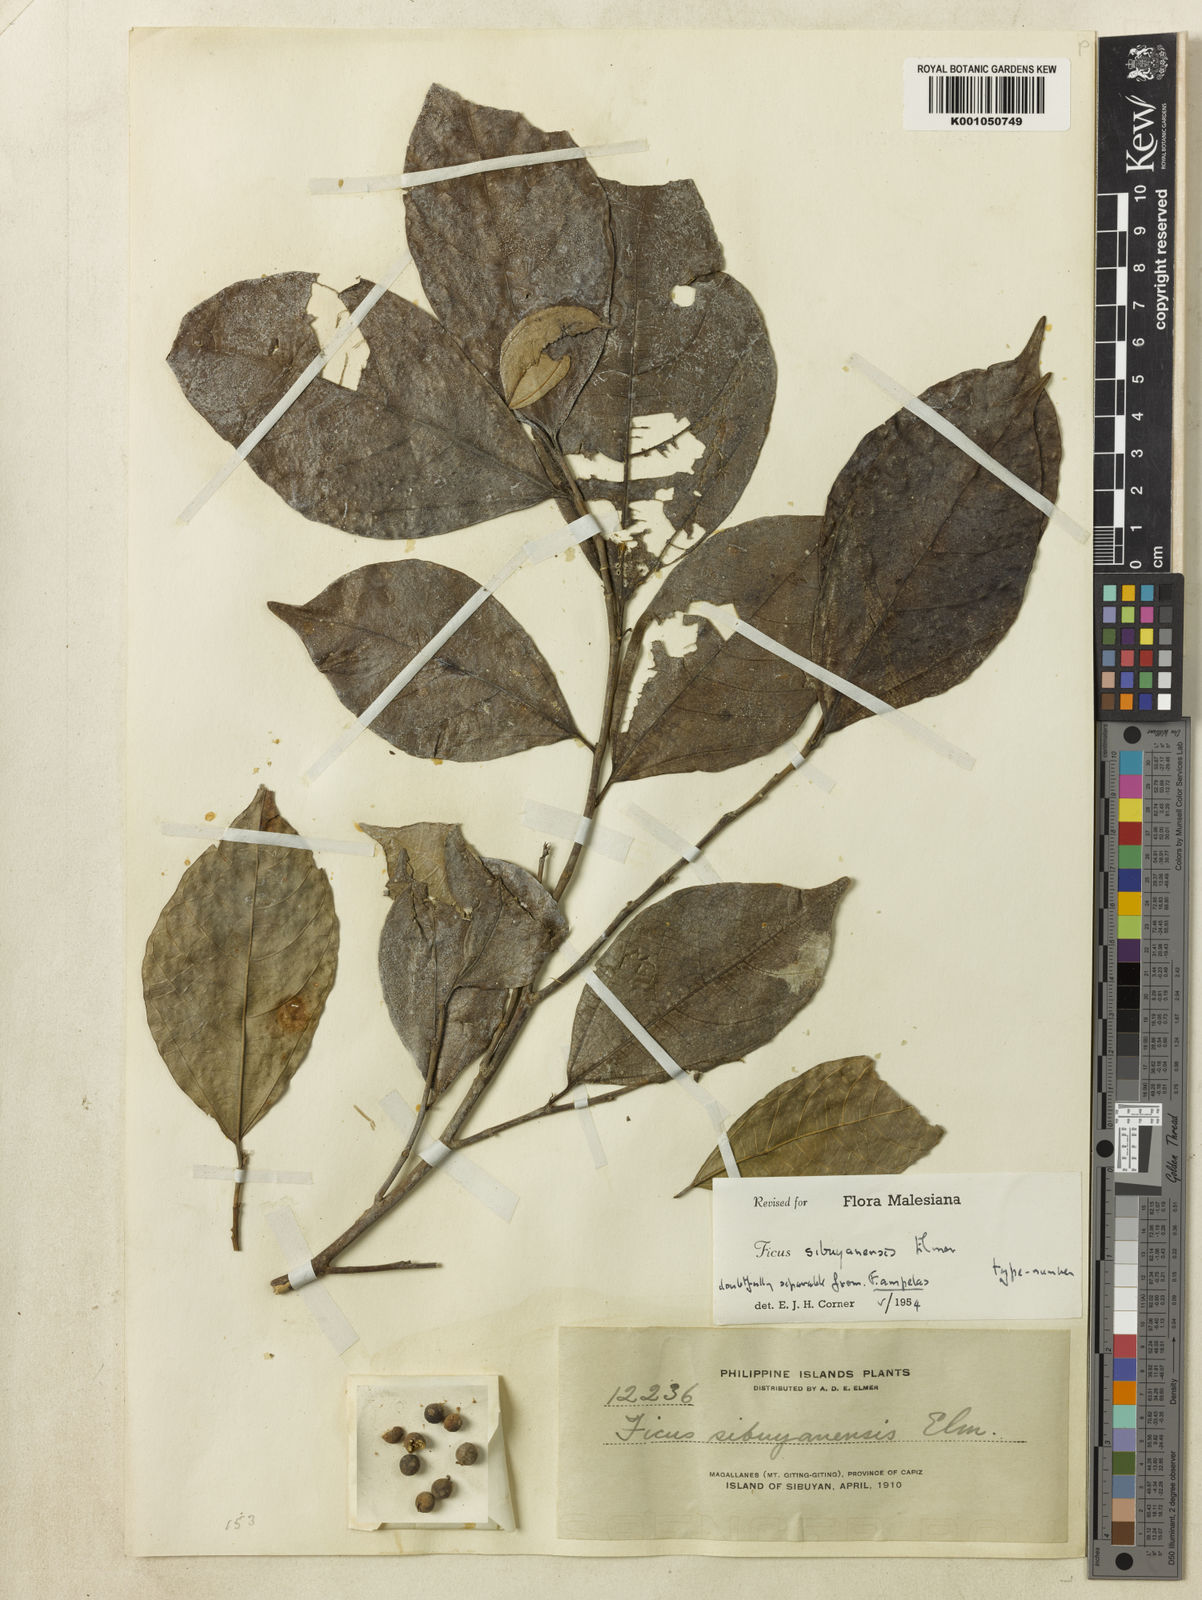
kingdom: Plantae
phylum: Tracheophyta
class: Magnoliopsida
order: Rosales
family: Moraceae
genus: Ficus
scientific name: Ficus ampelos
